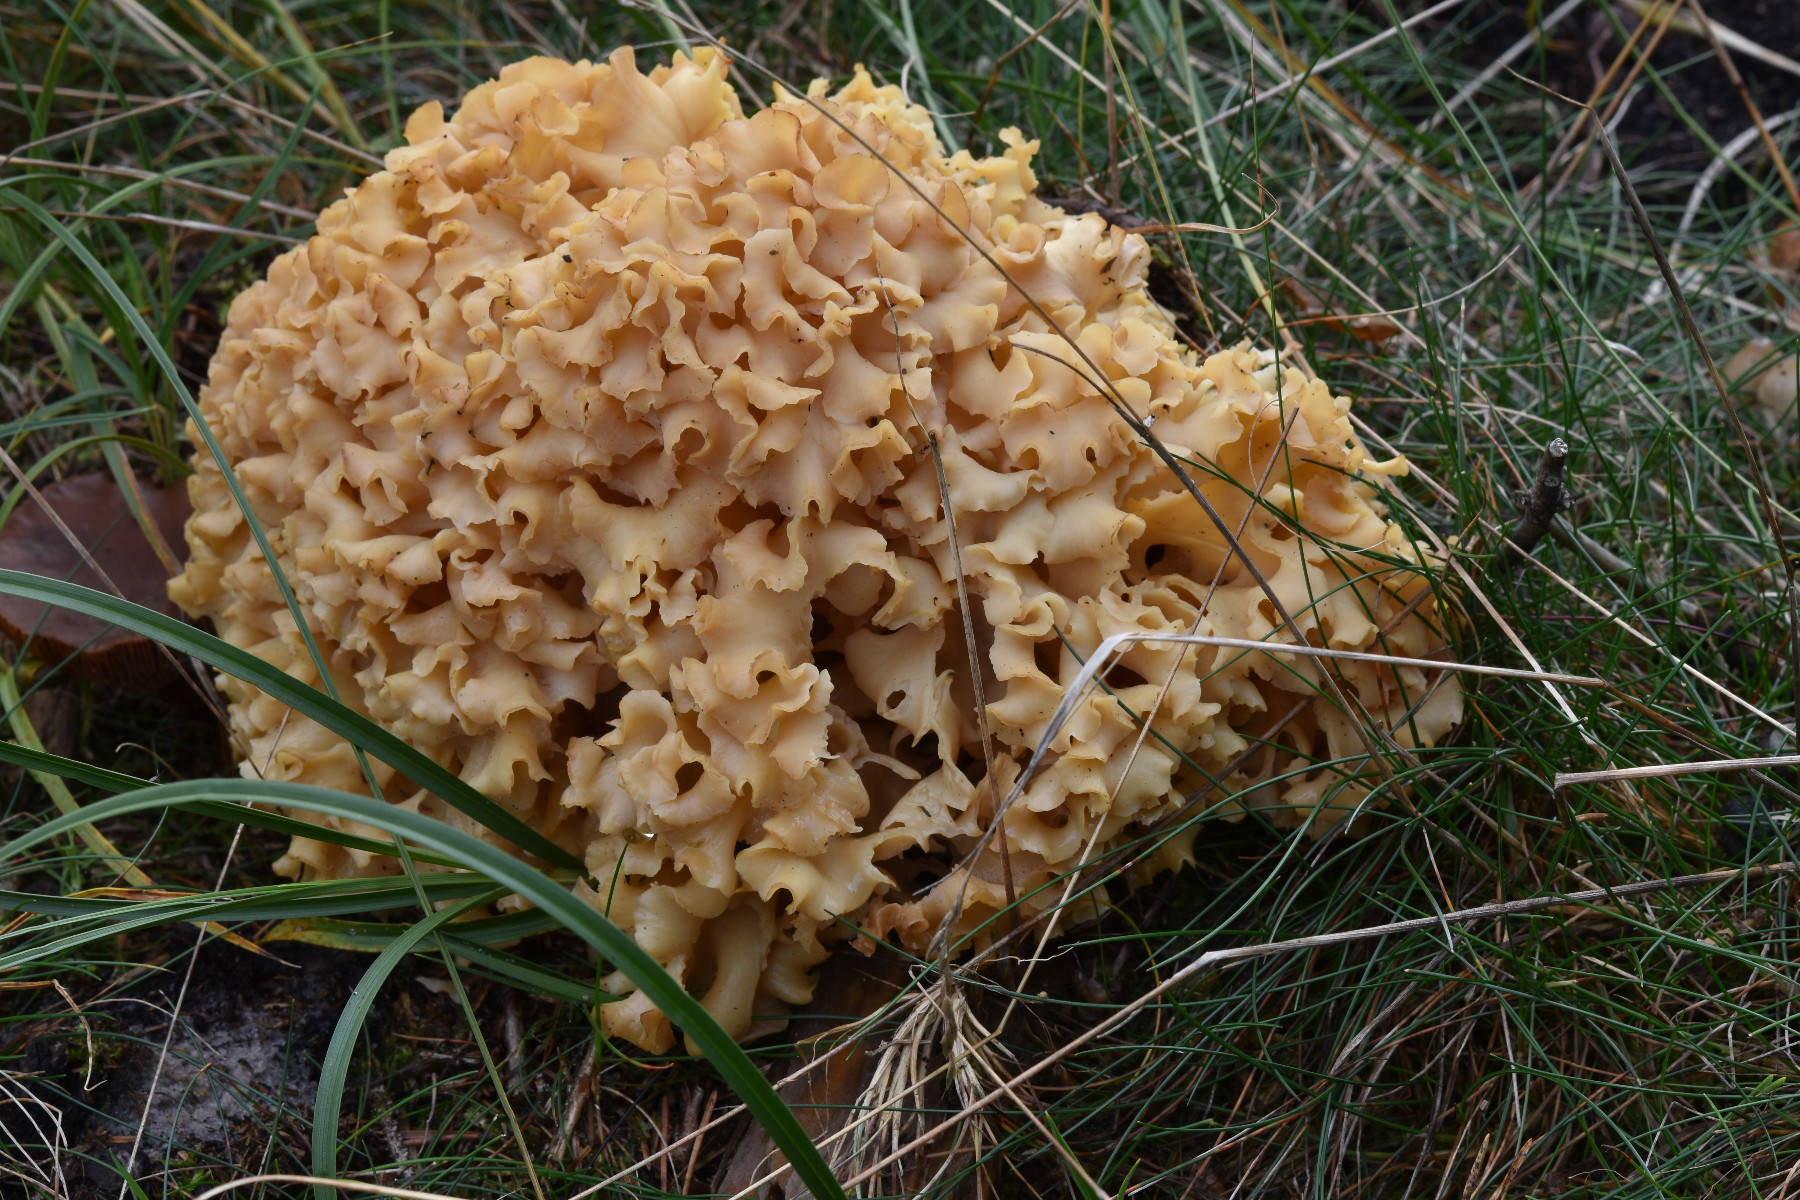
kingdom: Fungi
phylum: Basidiomycota
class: Agaricomycetes
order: Polyporales
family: Sparassidaceae
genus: Sparassis
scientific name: Sparassis crispa
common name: kruset blomkålssvamp
